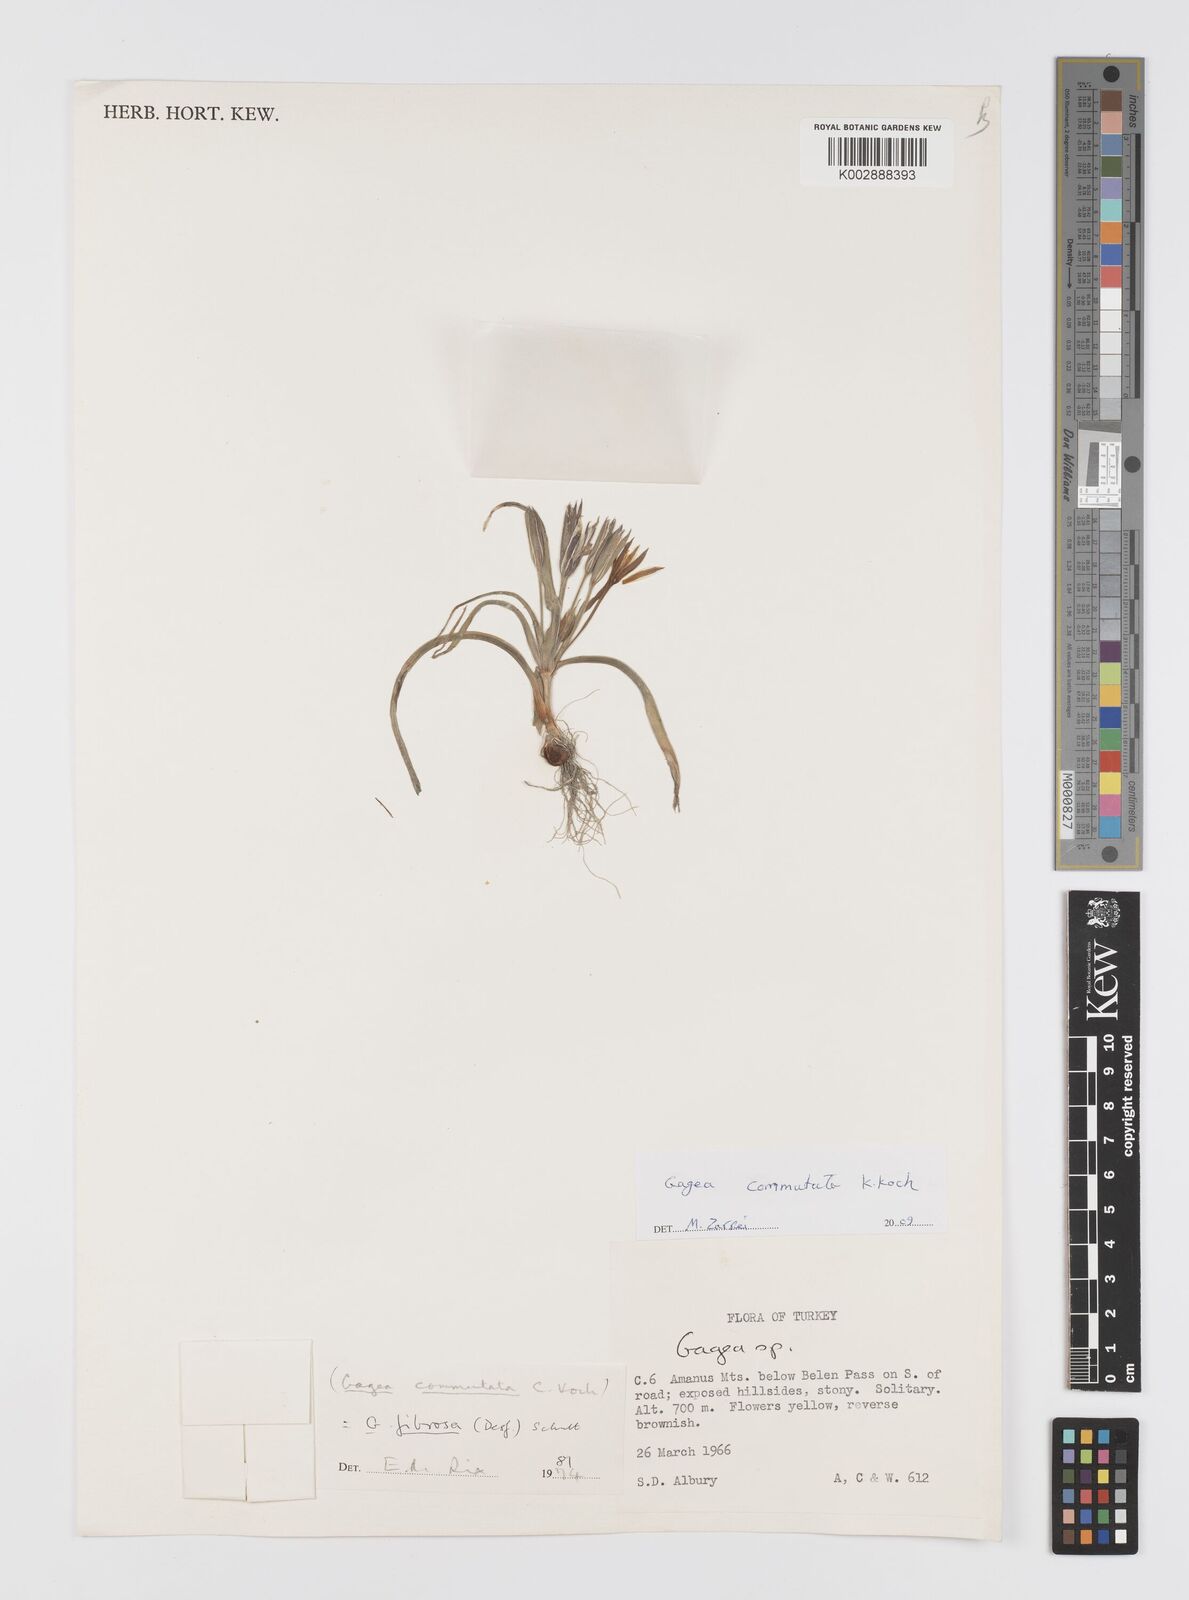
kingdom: Plantae
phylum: Tracheophyta
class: Liliopsida
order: Liliales
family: Liliaceae
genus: Gagea
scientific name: Gagea commutata
